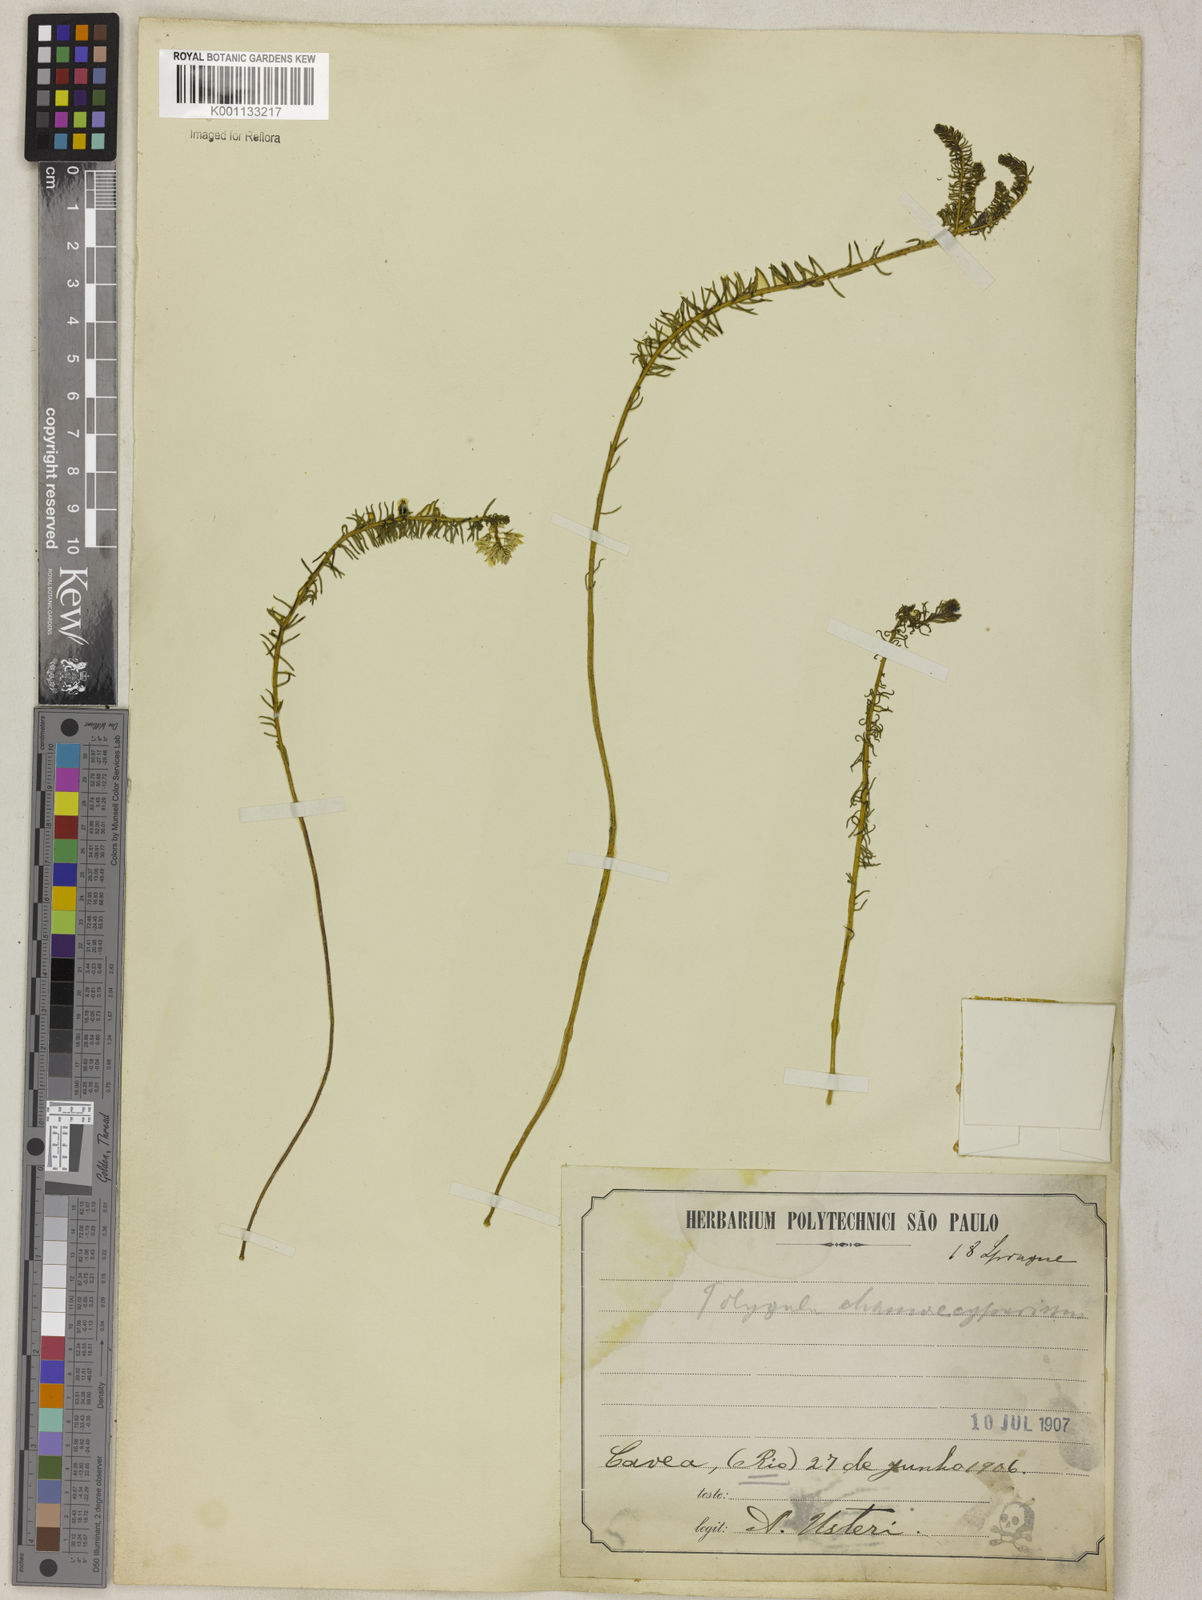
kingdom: Plantae
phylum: Tracheophyta
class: Magnoliopsida
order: Fabales
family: Polygalaceae
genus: Polygala
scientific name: Polygala cyparissias
